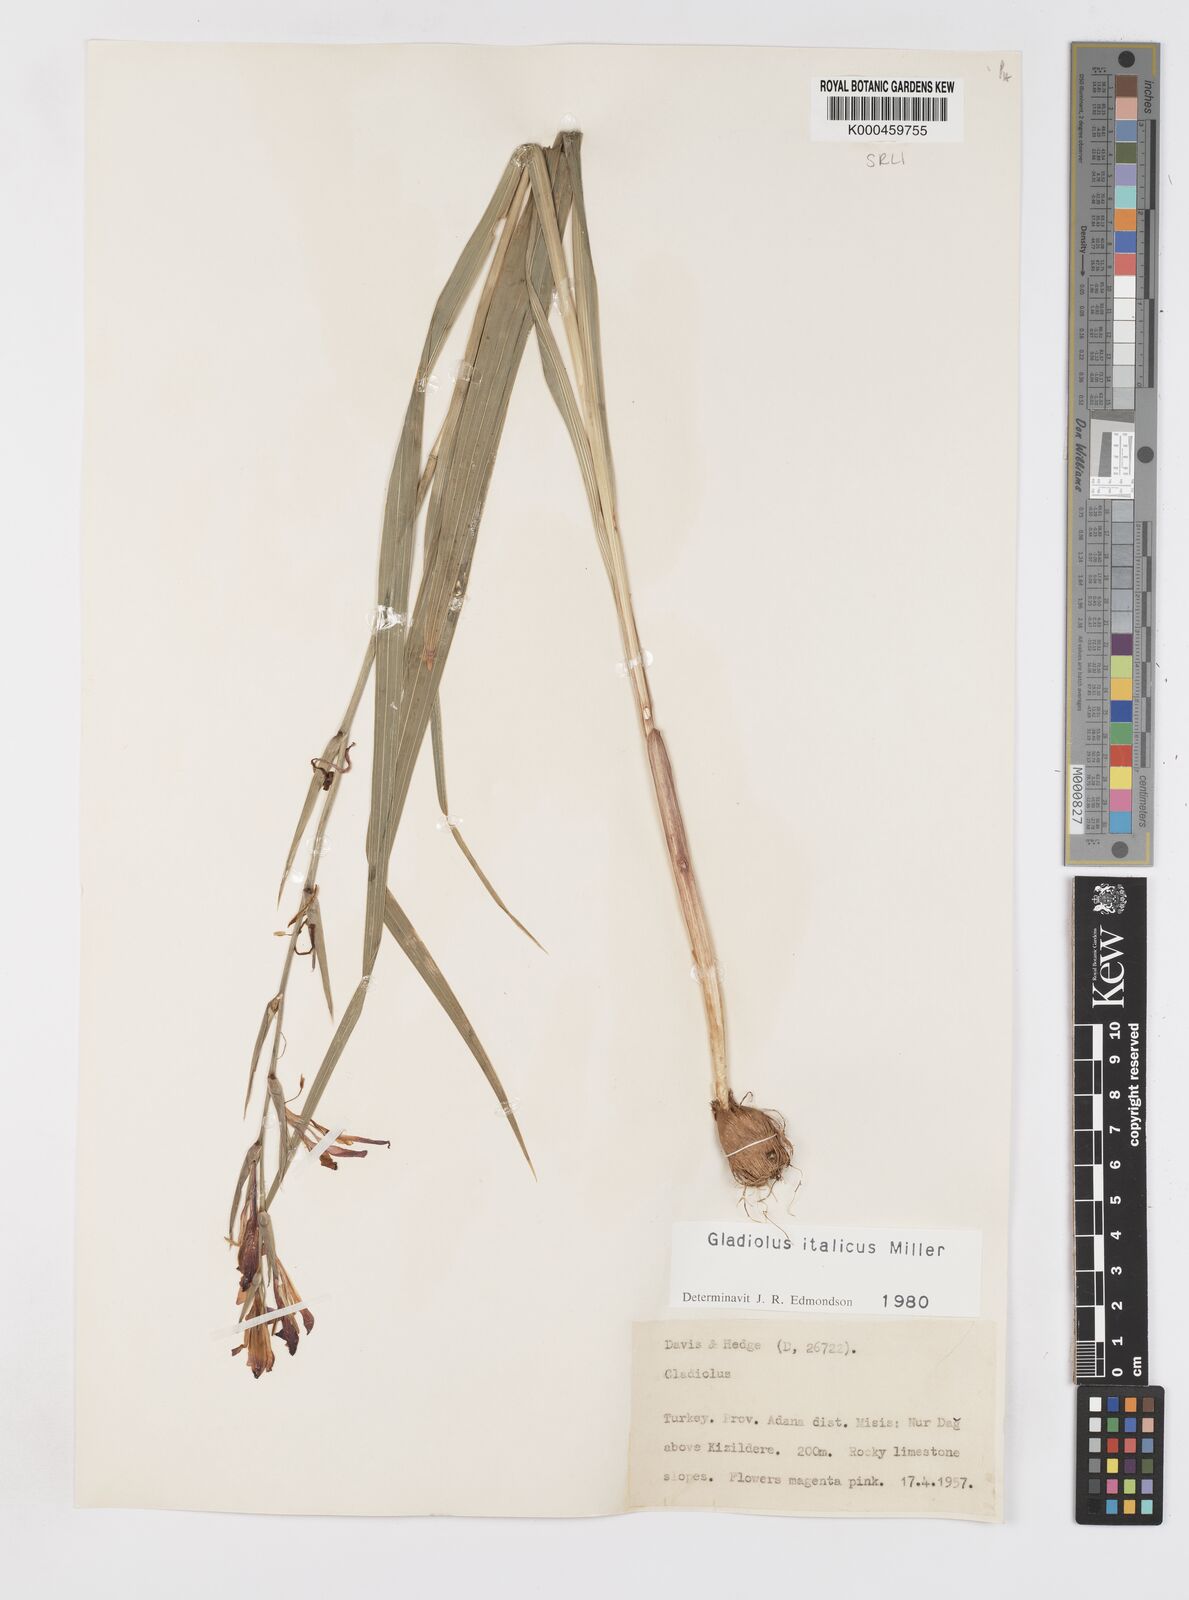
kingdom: Plantae
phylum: Tracheophyta
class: Liliopsida
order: Asparagales
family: Iridaceae
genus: Gladiolus
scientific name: Gladiolus italicus
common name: Field gladiolus
